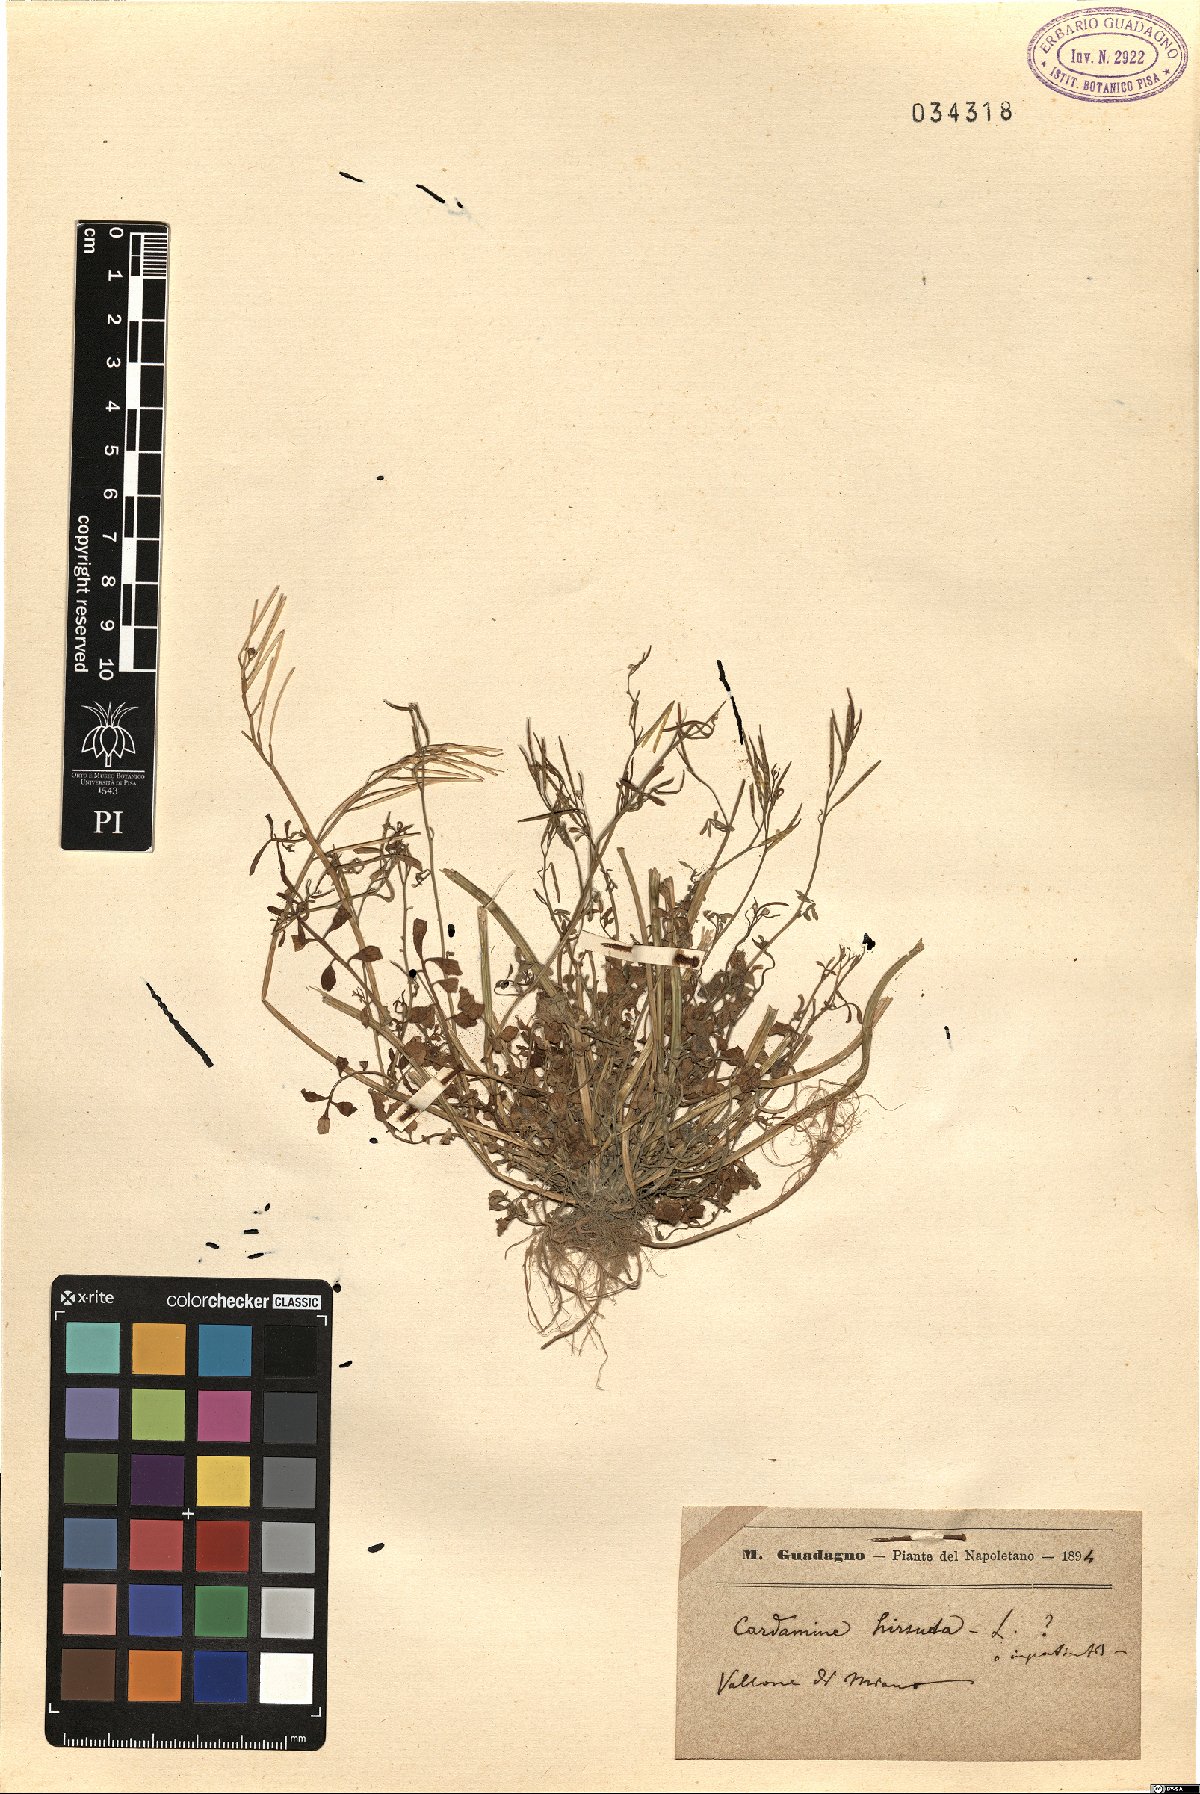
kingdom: Plantae
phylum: Tracheophyta
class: Magnoliopsida
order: Brassicales
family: Brassicaceae
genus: Cardamine
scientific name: Cardamine hirsuta
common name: Hairy bittercress
